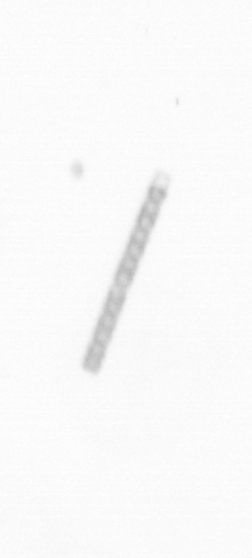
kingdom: Chromista
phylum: Ochrophyta
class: Bacillariophyceae
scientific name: Bacillariophyceae
